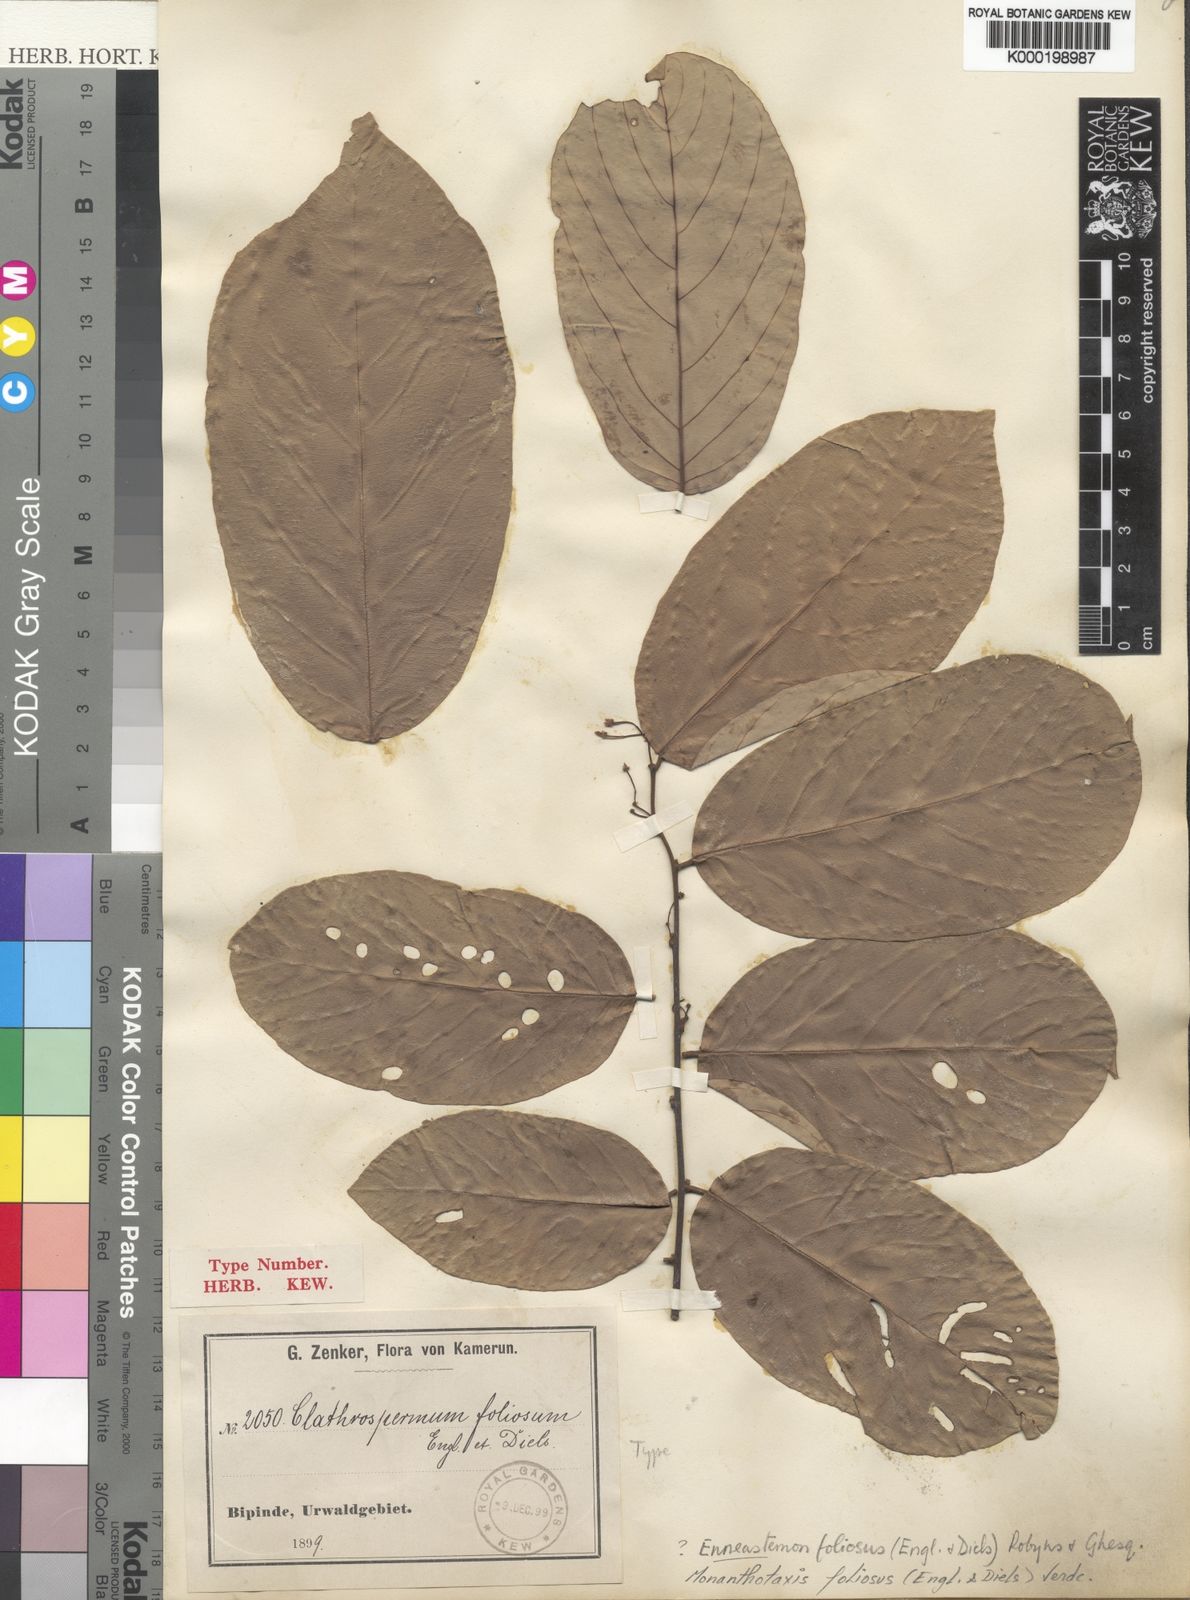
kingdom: Plantae
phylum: Tracheophyta
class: Magnoliopsida
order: Magnoliales
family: Annonaceae
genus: Monanthotaxis
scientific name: Monanthotaxis foliosa
